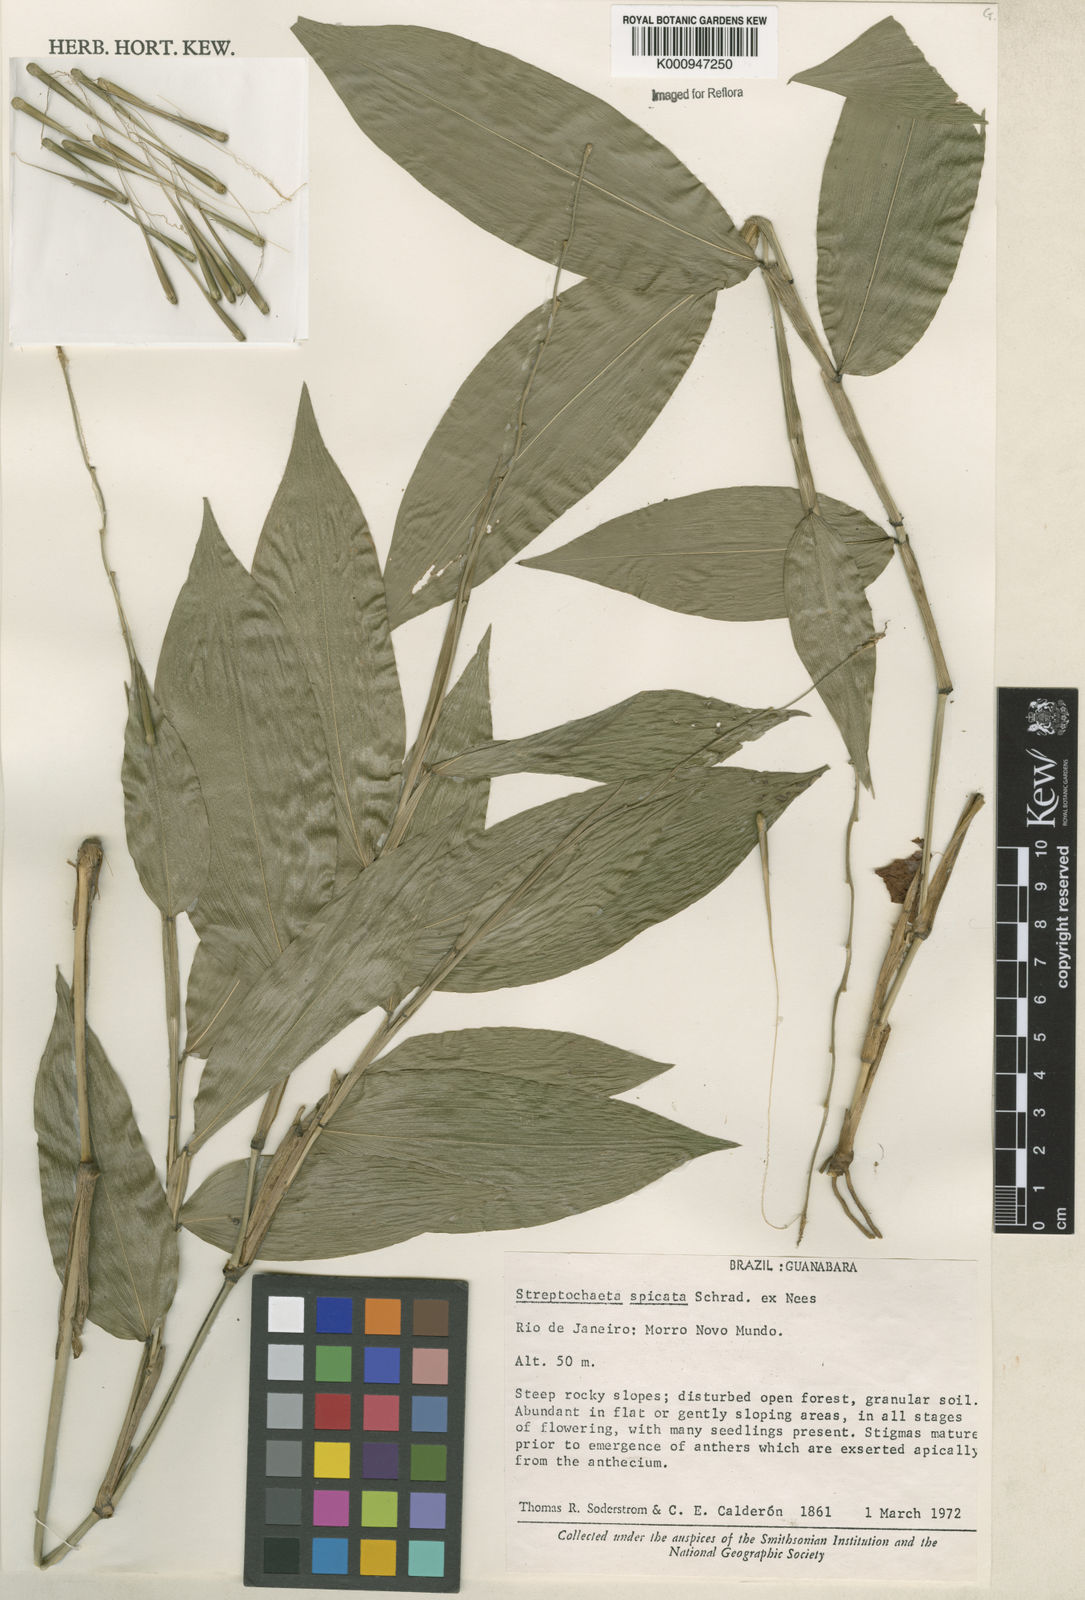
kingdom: Plantae
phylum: Tracheophyta
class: Liliopsida
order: Poales
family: Poaceae
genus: Streptochaeta
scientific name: Streptochaeta spicata
